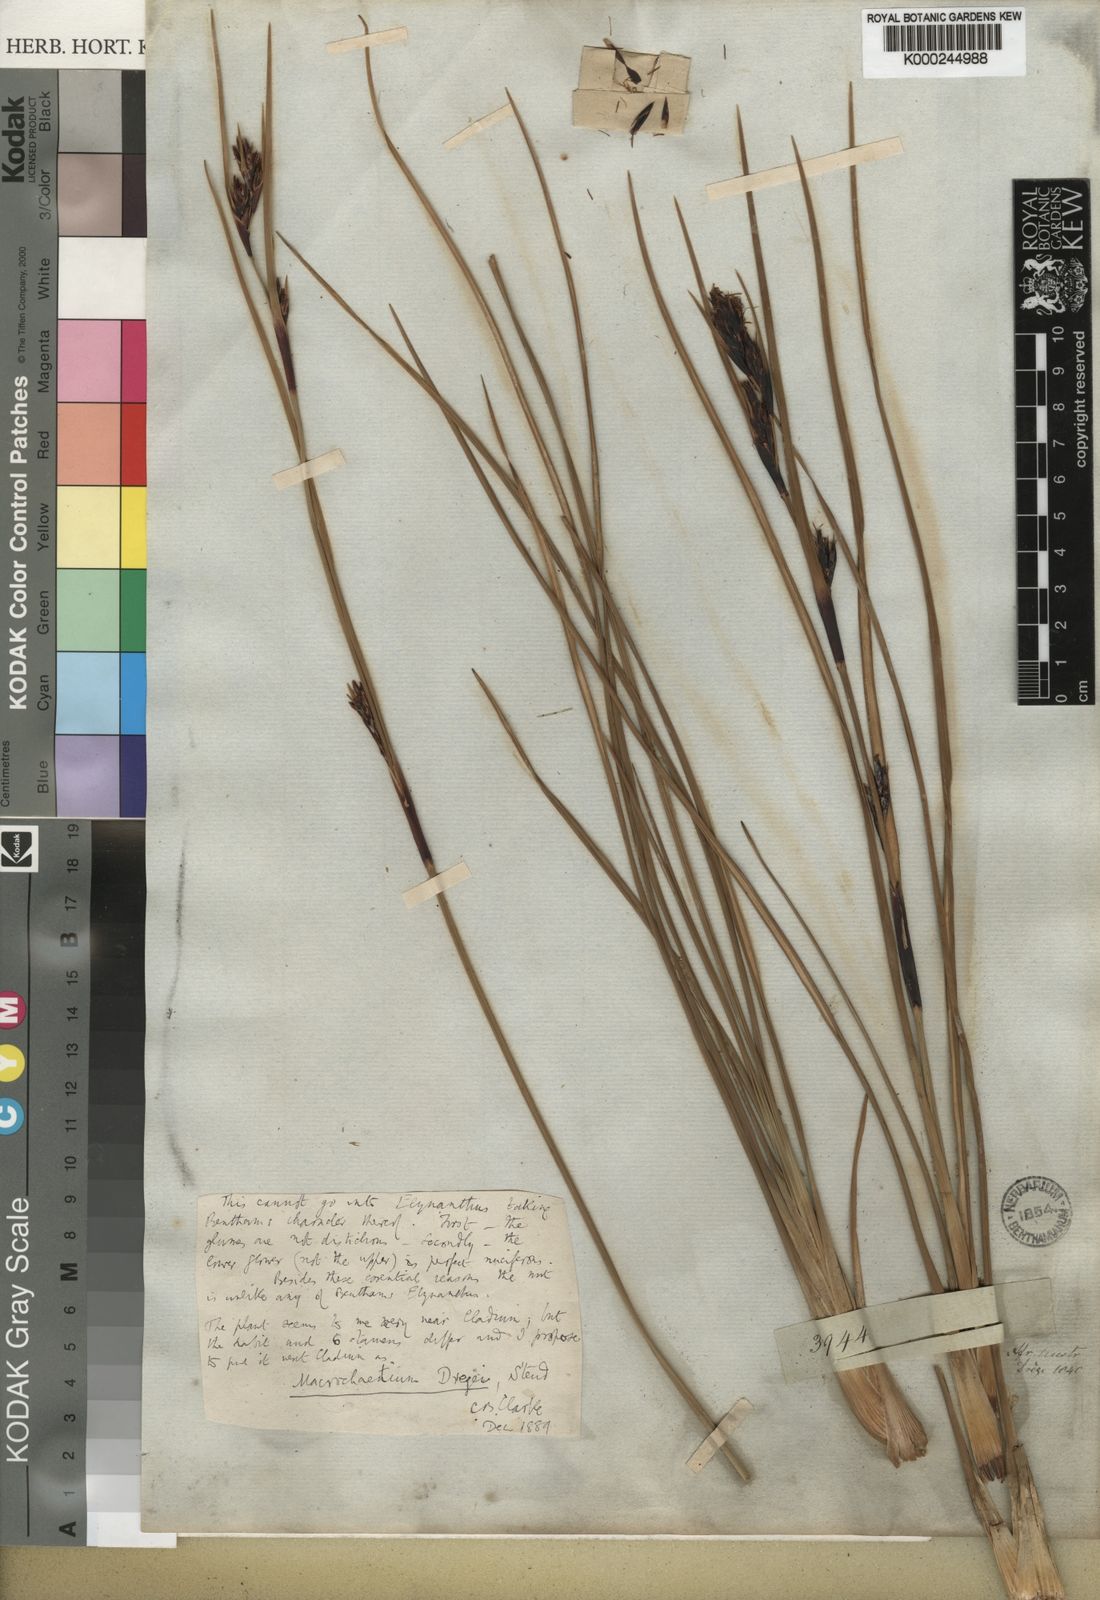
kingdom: Plantae
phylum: Tracheophyta
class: Liliopsida
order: Poales
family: Cyperaceae
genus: Cyathocoma
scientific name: Cyathocoma hexandra
